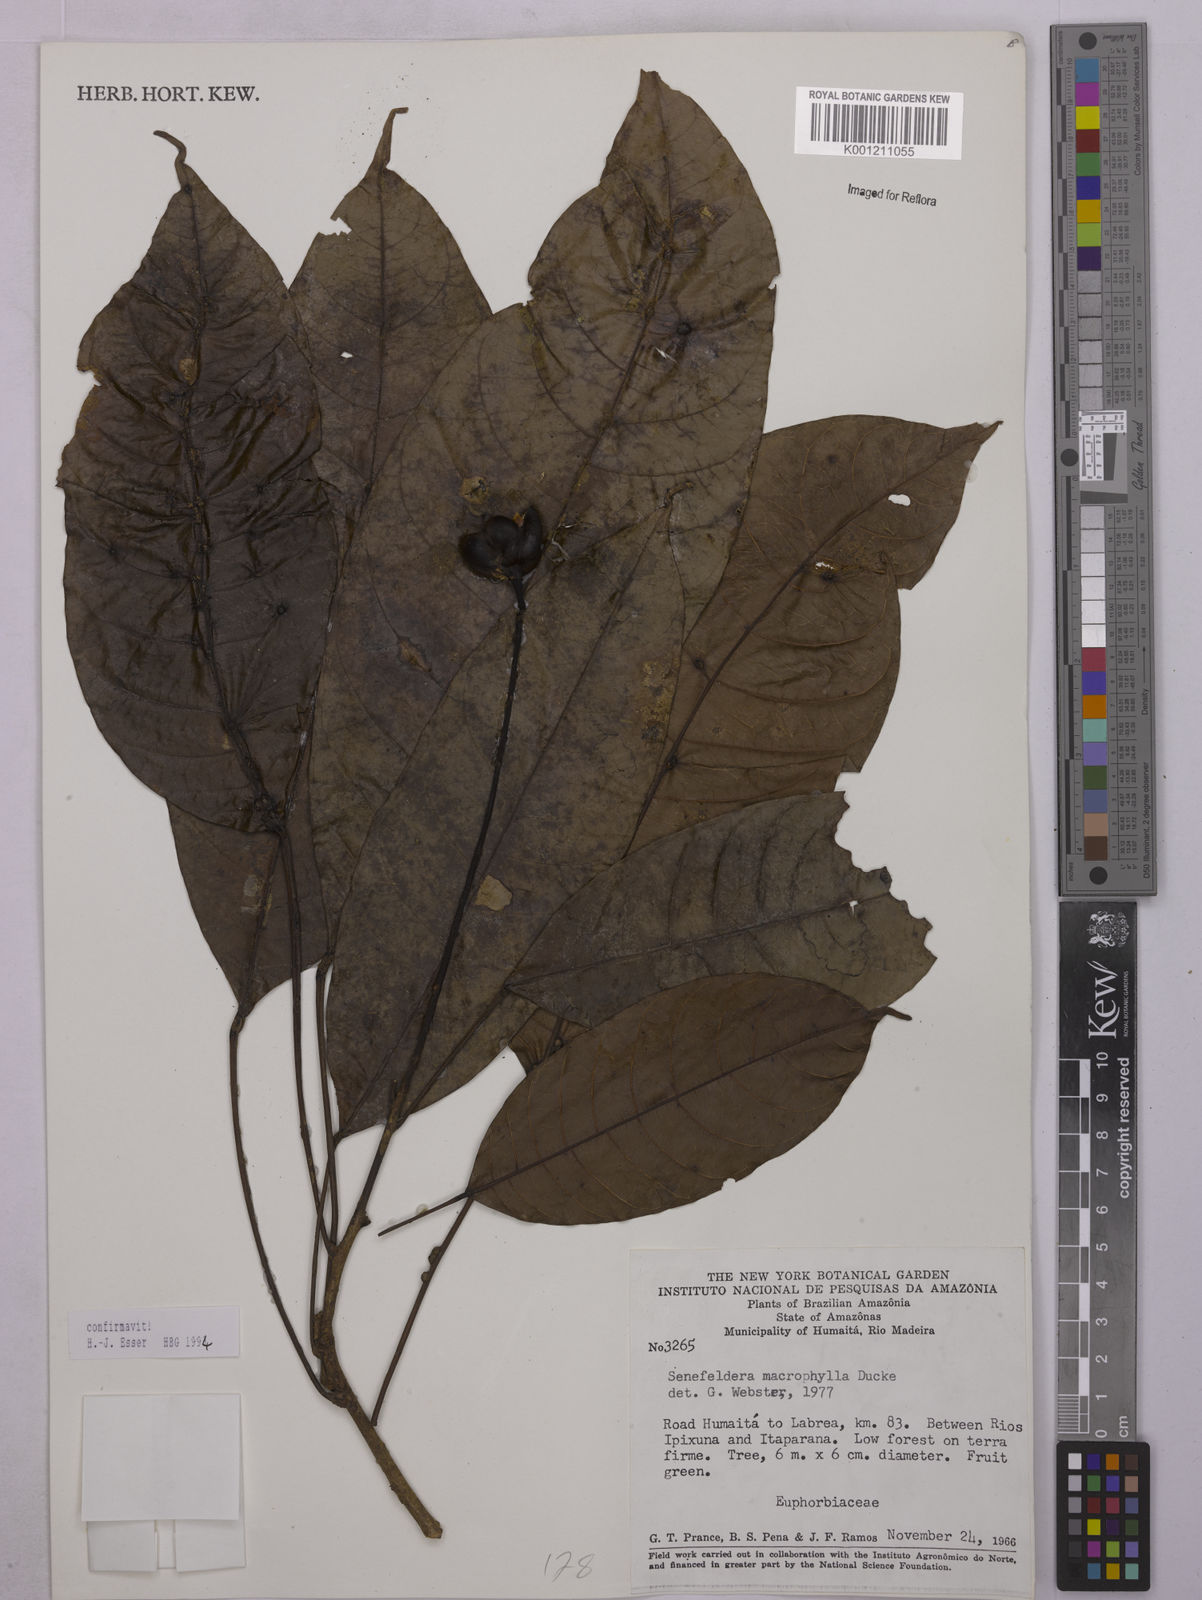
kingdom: Plantae
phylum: Tracheophyta
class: Magnoliopsida
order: Malpighiales
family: Euphorbiaceae
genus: Rhodothyrsus
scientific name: Rhodothyrsus macrophyllus
